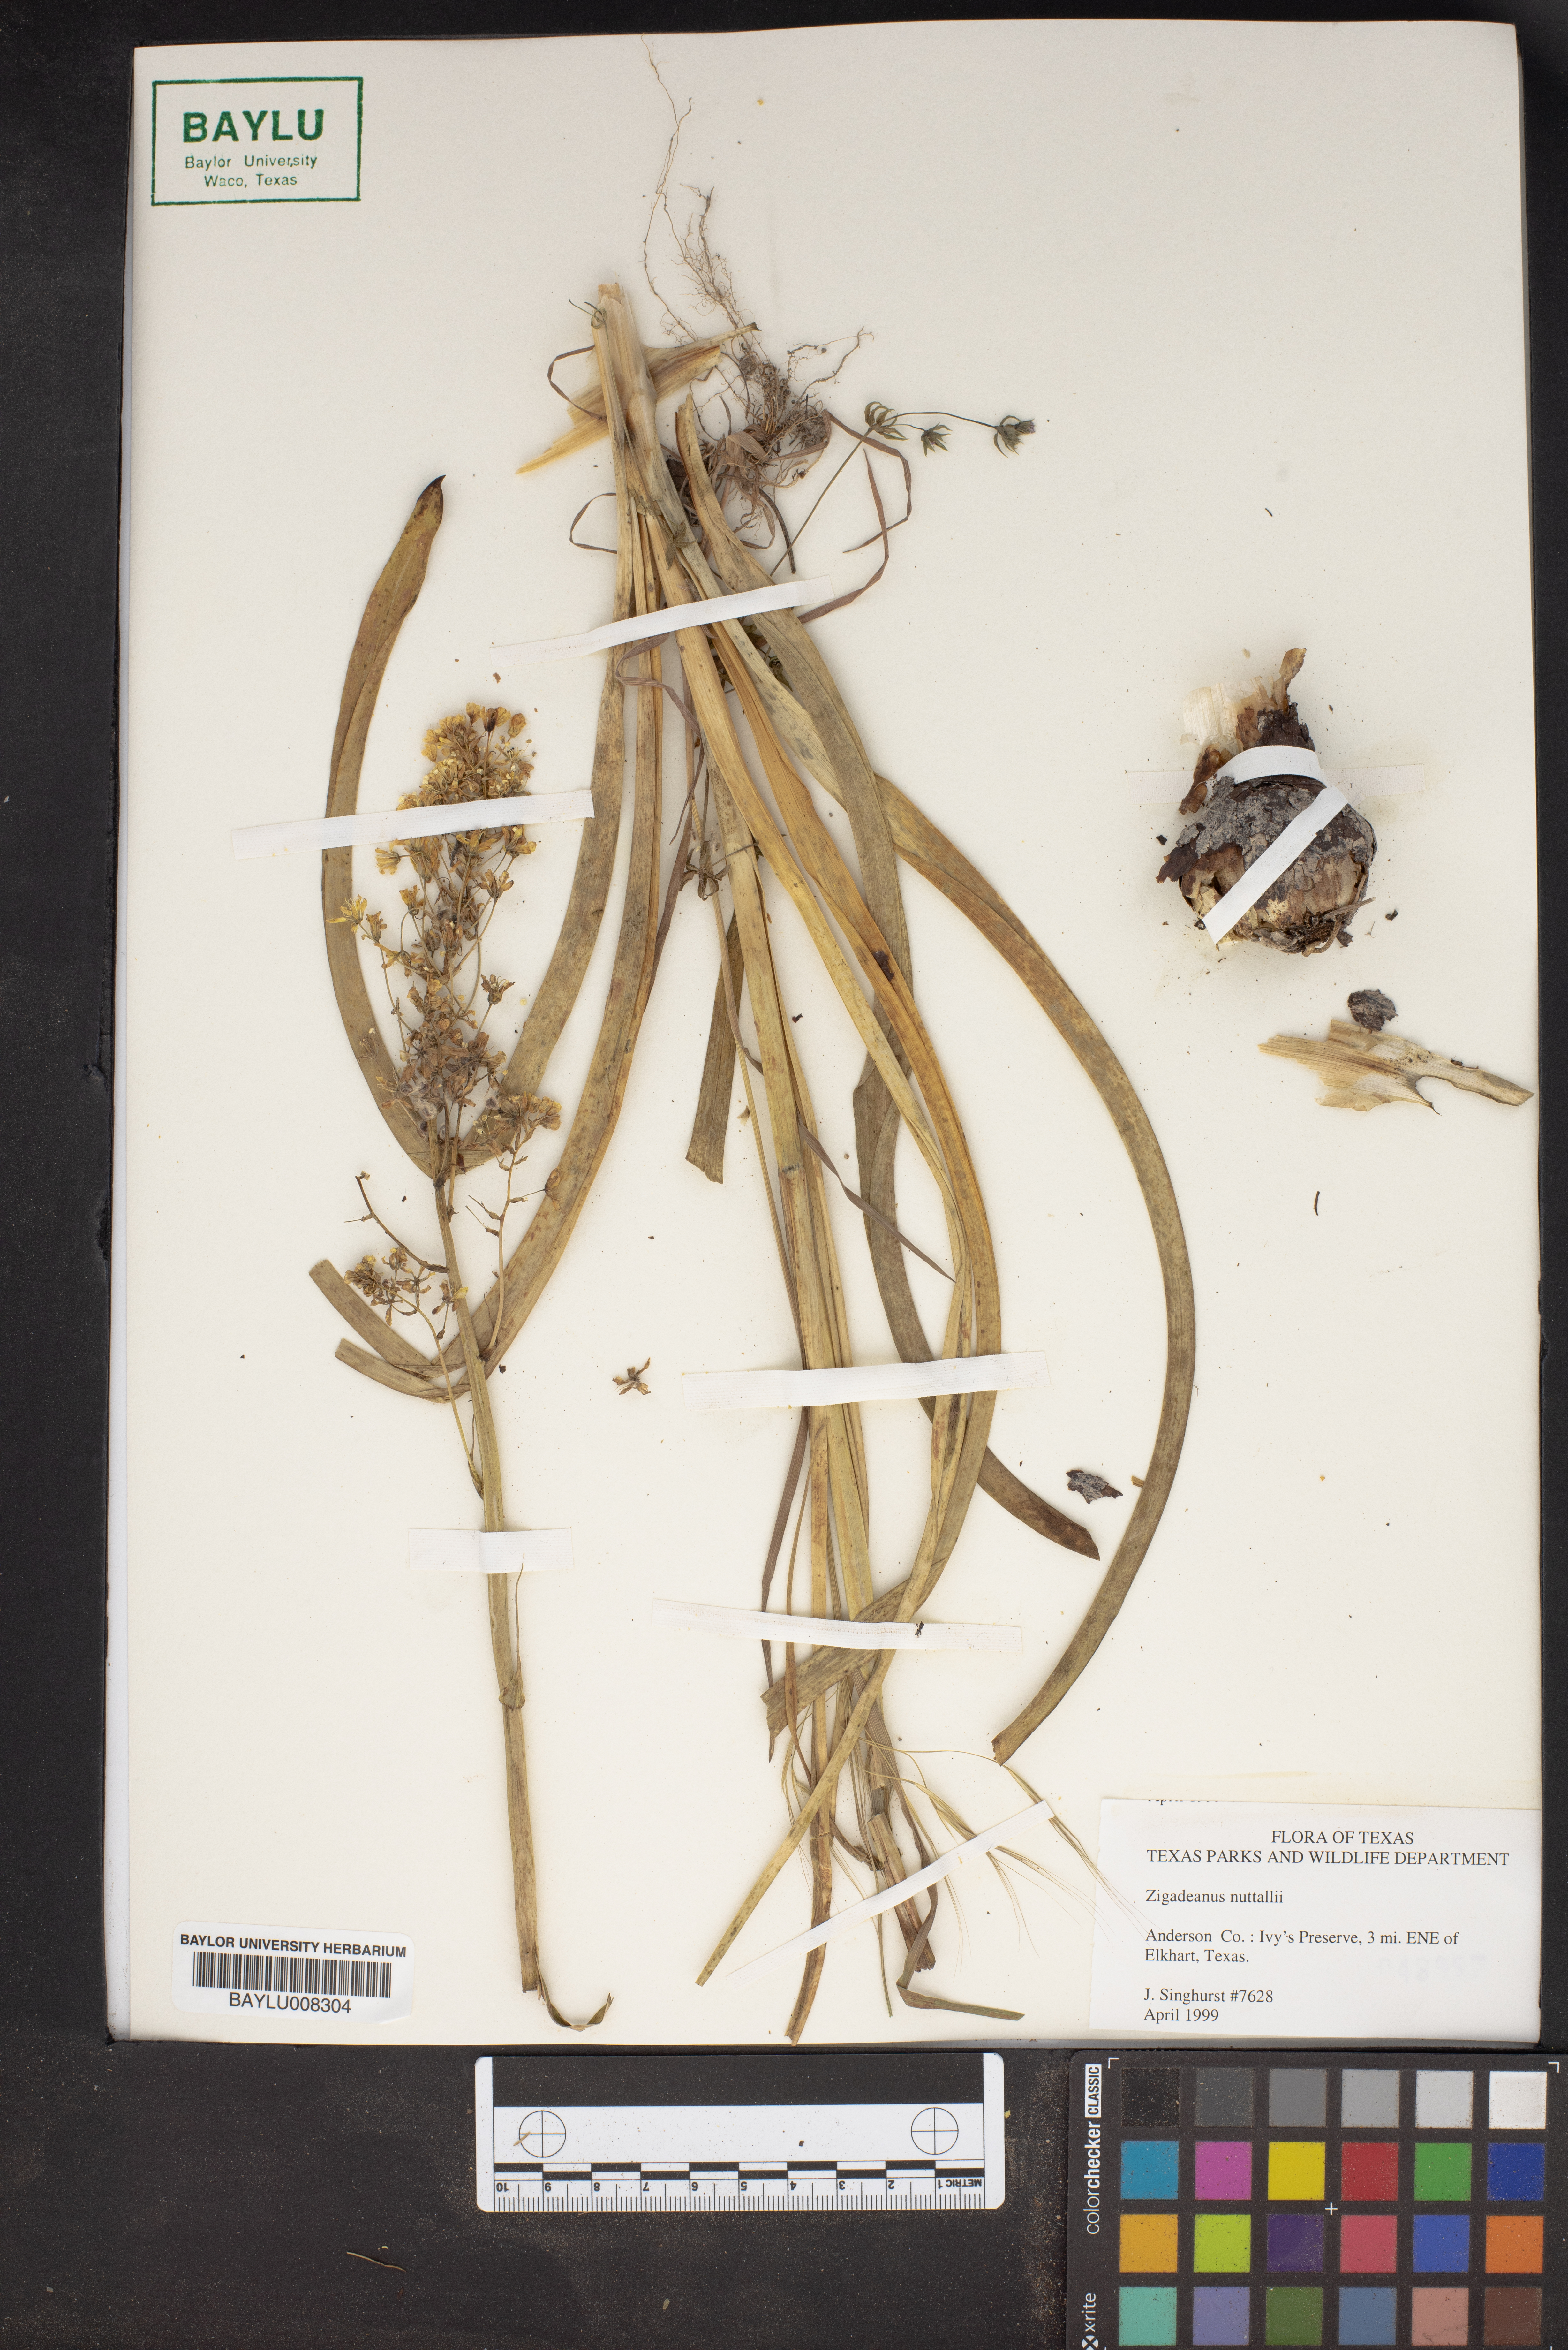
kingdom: Plantae
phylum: Tracheophyta
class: Liliopsida
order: Liliales
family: Melanthiaceae
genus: Toxicoscordion
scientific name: Toxicoscordion nuttallii
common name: Poison sego
